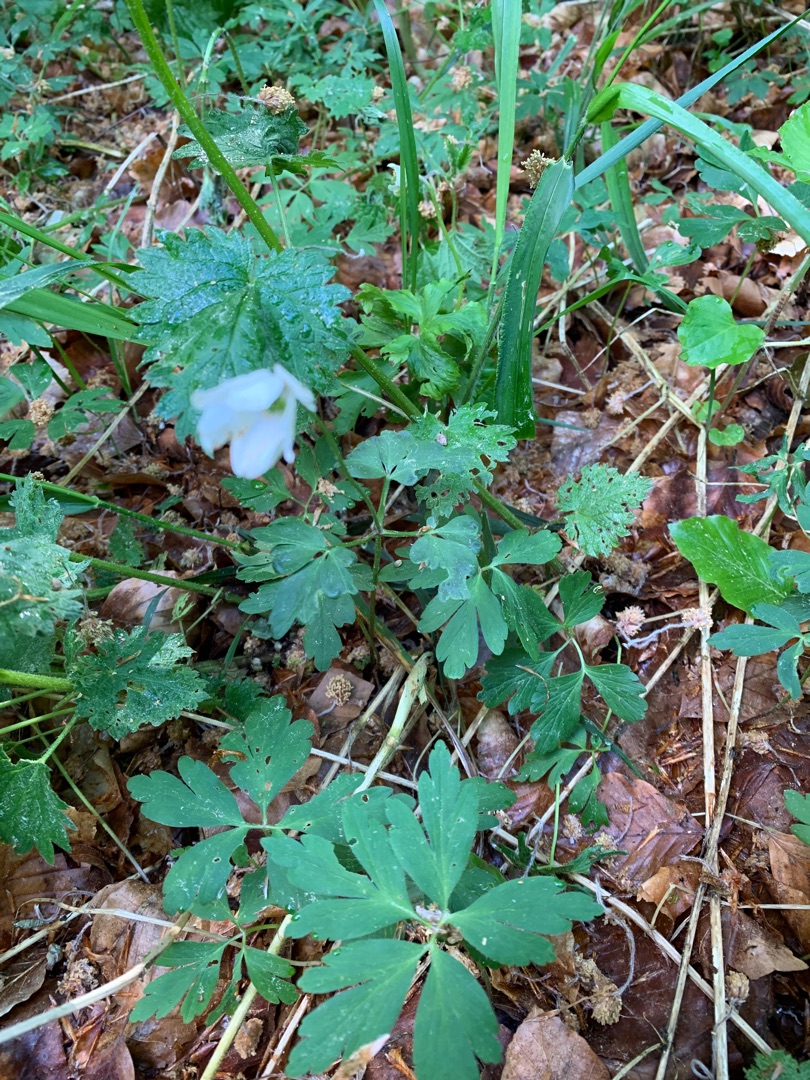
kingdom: Plantae
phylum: Tracheophyta
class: Magnoliopsida
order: Ranunculales
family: Ranunculaceae
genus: Anemone
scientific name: Anemone nemorosa
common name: Hvid anemone
